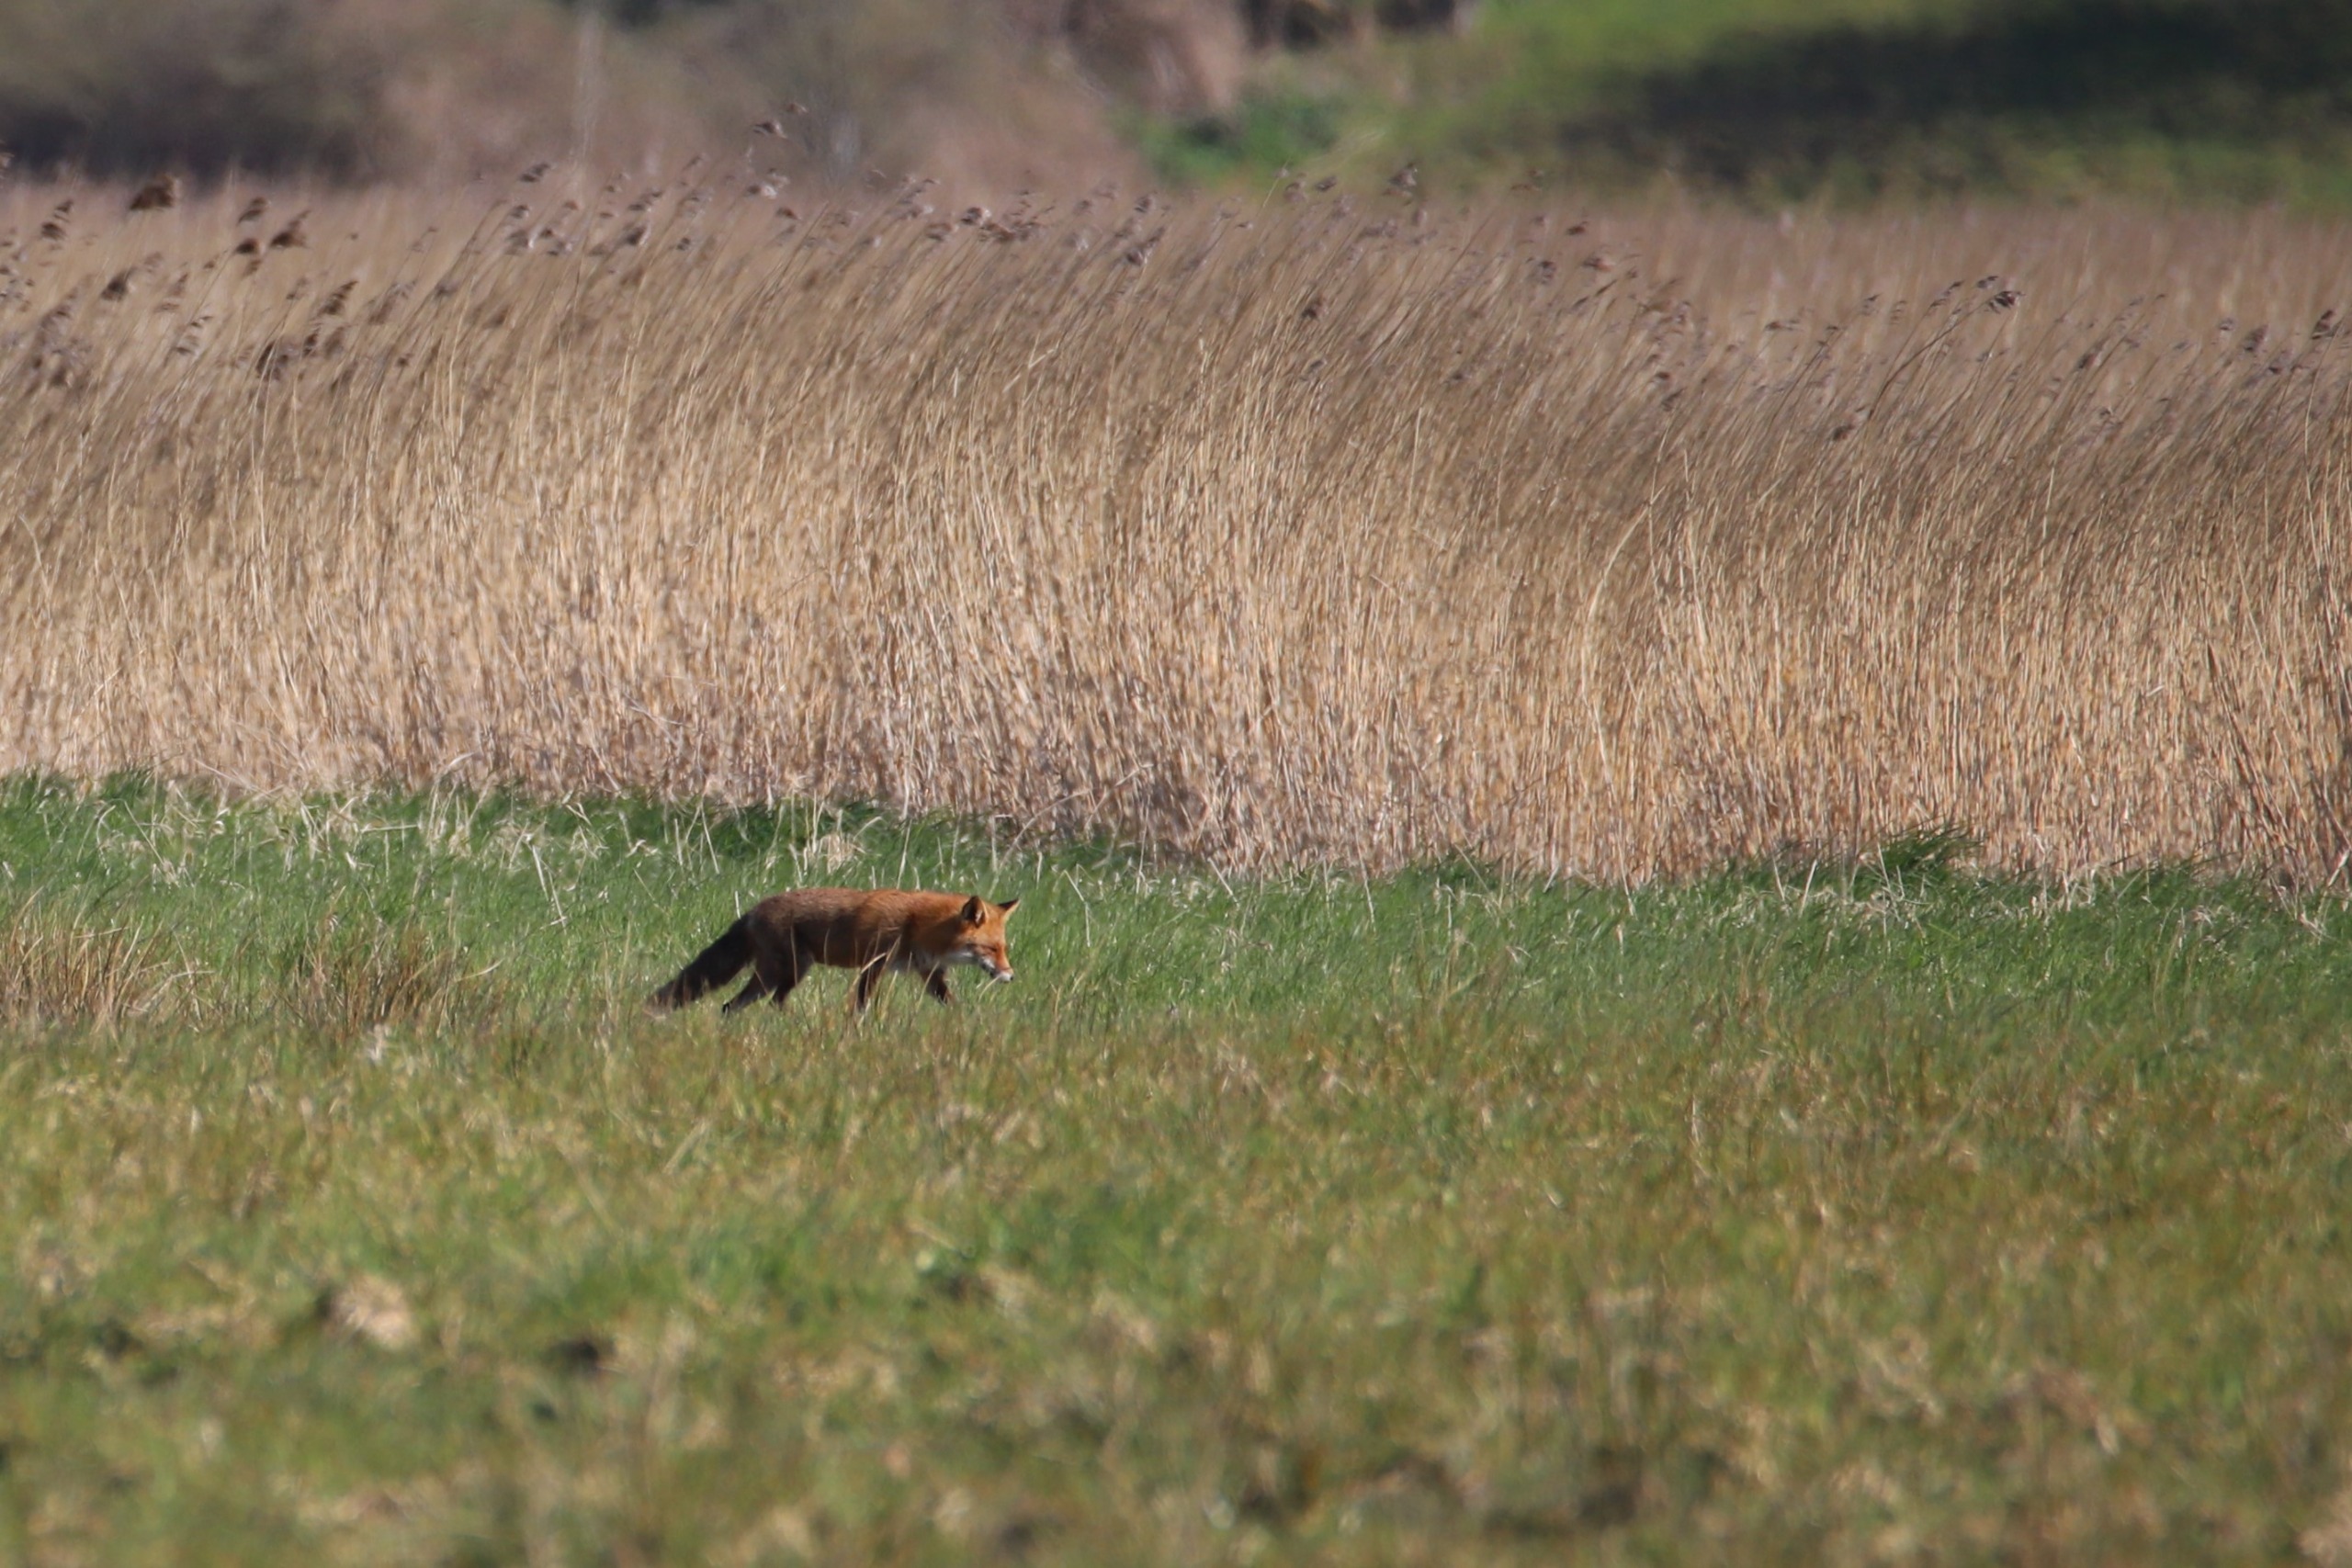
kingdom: Animalia
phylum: Chordata
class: Mammalia
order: Carnivora
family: Canidae
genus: Vulpes
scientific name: Vulpes vulpes
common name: Ræv
